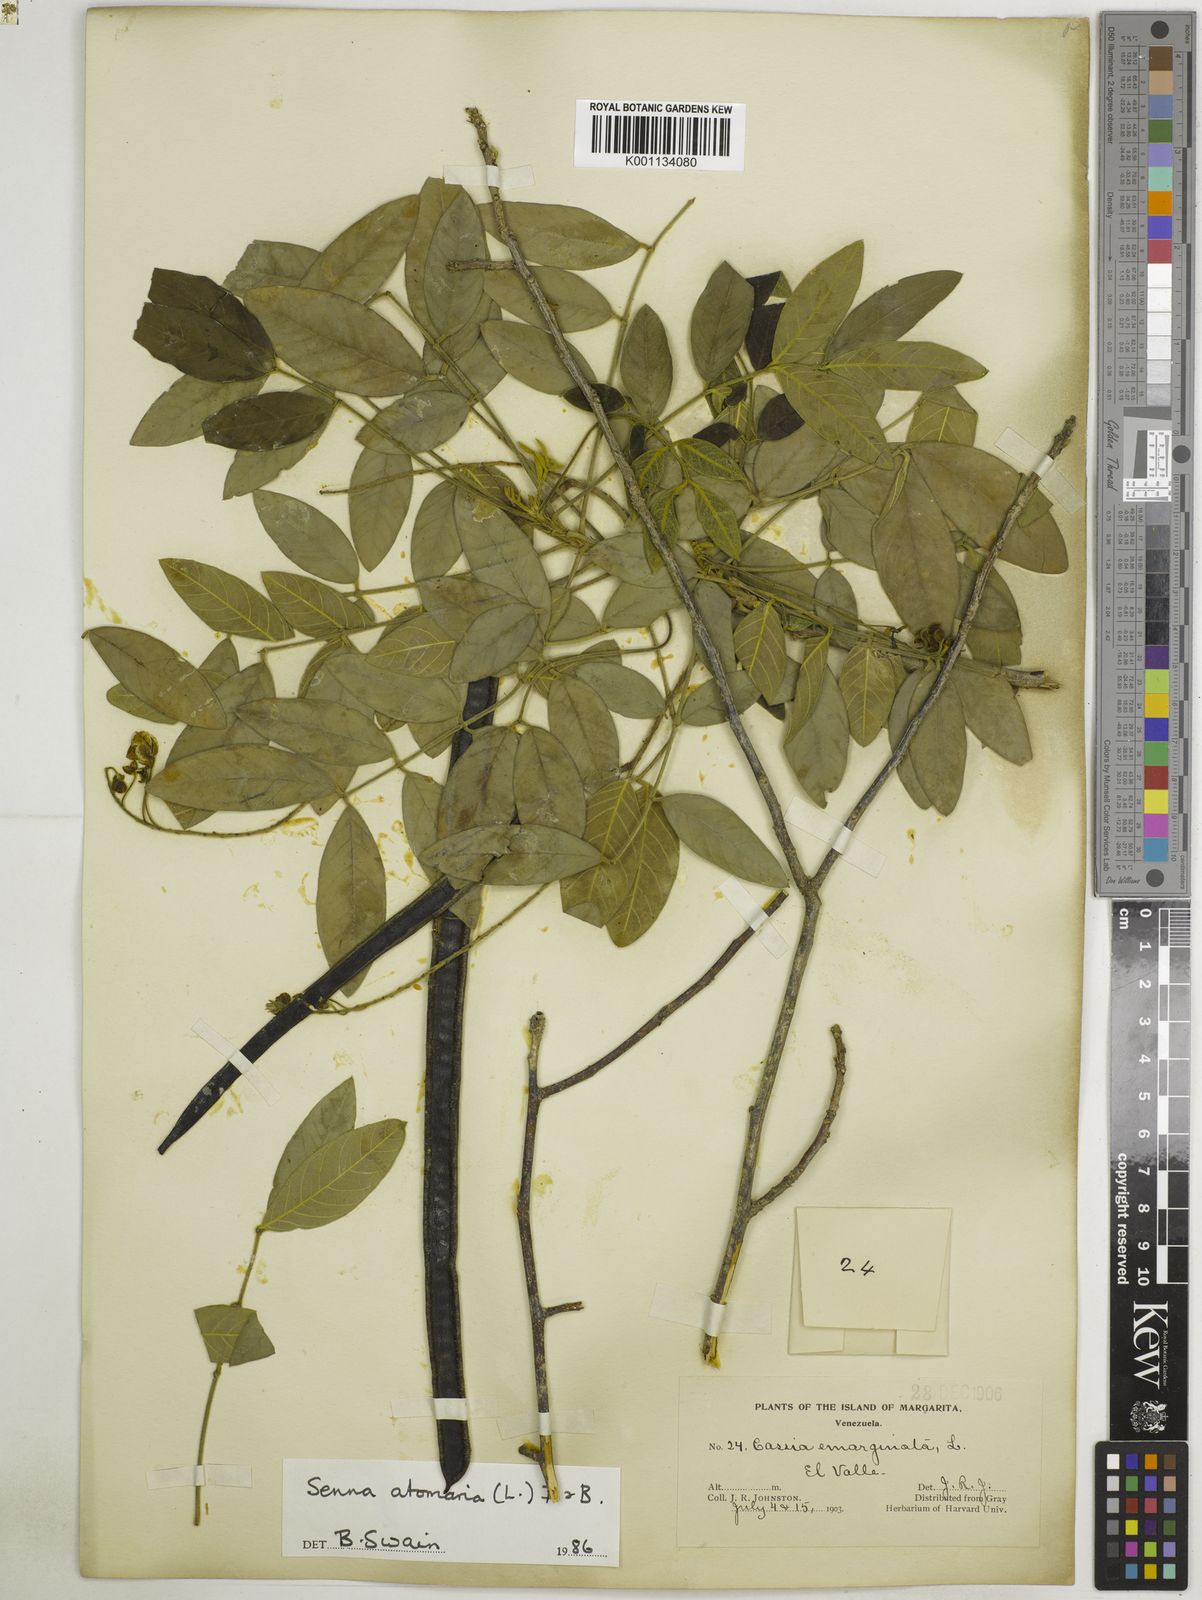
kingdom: Plantae
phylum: Tracheophyta
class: Magnoliopsida
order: Fabales
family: Fabaceae
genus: Senna
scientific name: Senna atomaria
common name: Flor de san jose
